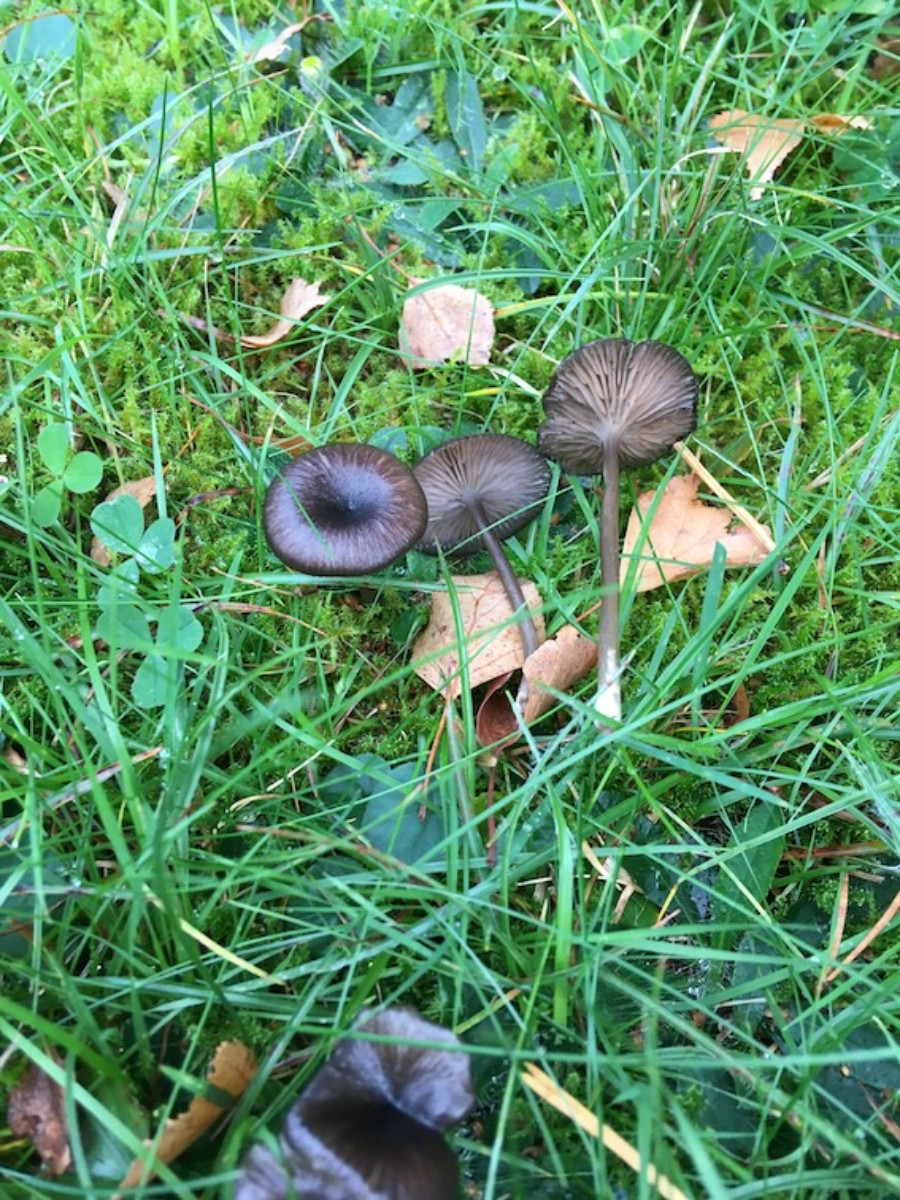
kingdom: Fungi
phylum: Basidiomycota
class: Agaricomycetes
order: Agaricales
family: Entolomataceae
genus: Entoloma
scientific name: Entoloma
